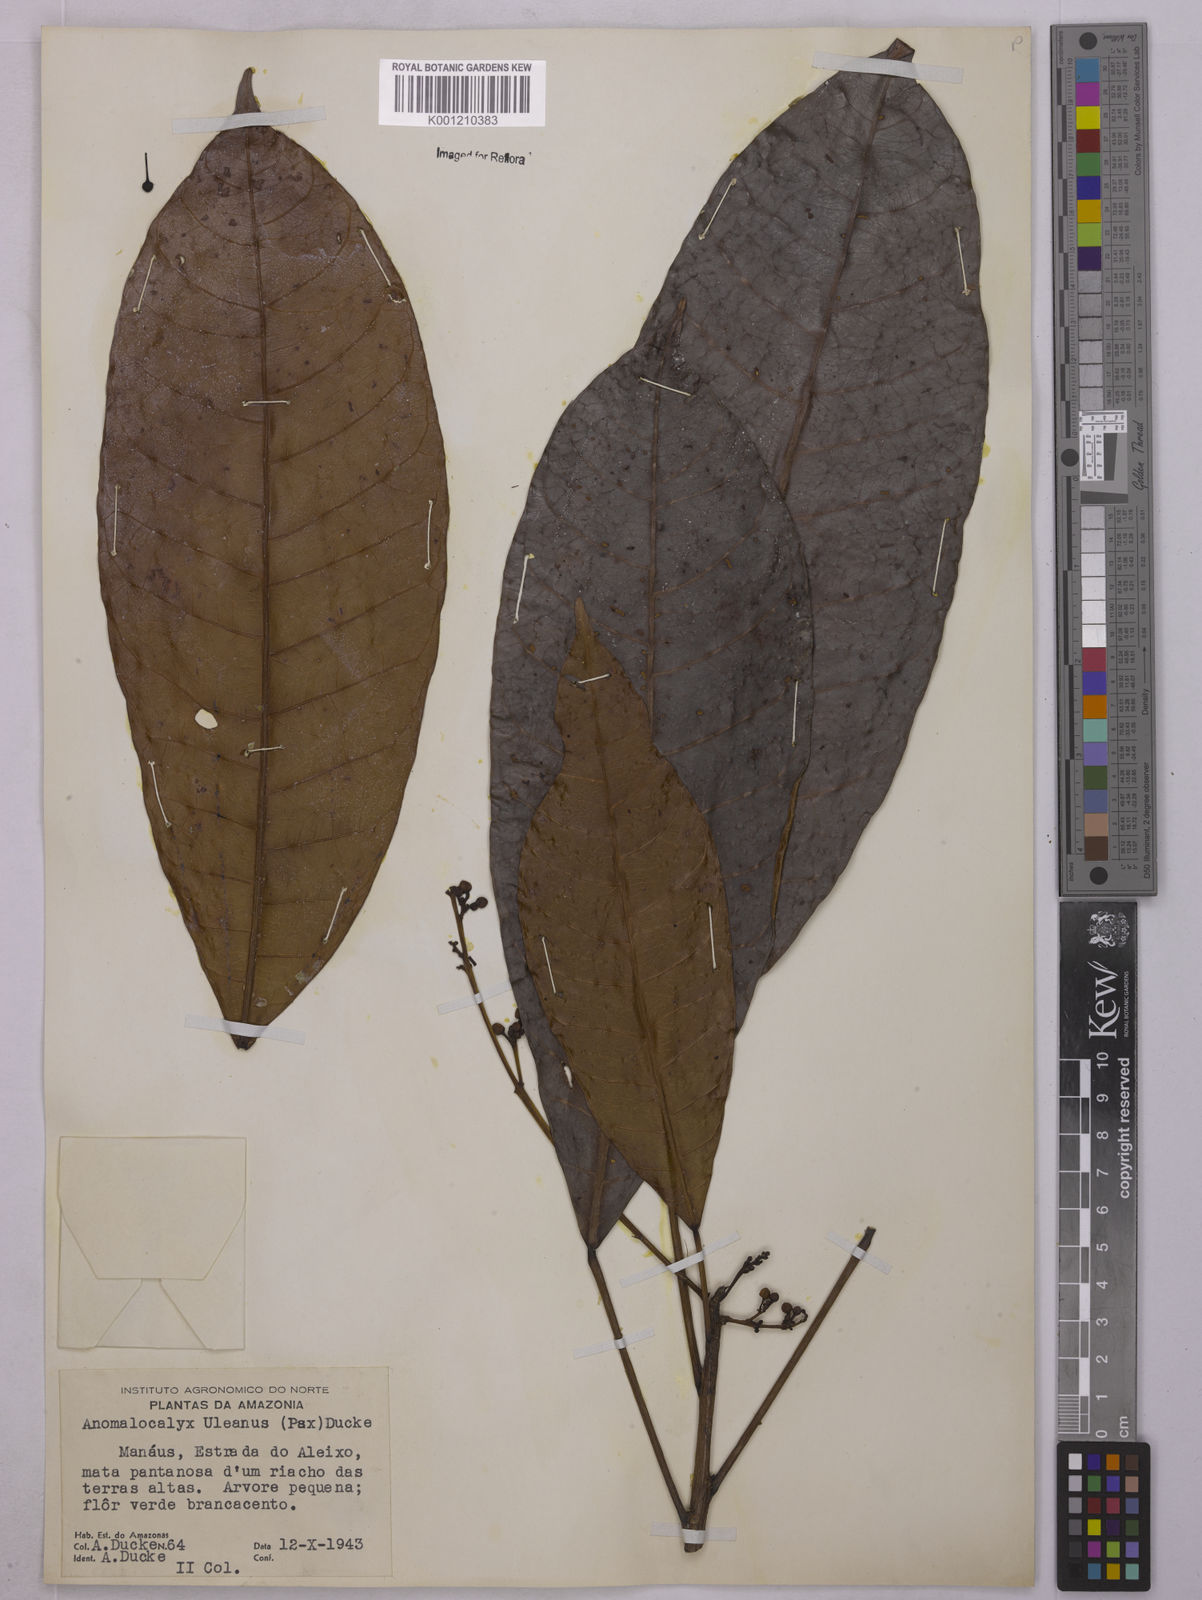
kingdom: Plantae
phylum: Tracheophyta
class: Magnoliopsida
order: Malpighiales
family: Euphorbiaceae
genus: Dodecastigma
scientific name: Dodecastigma uleanum
